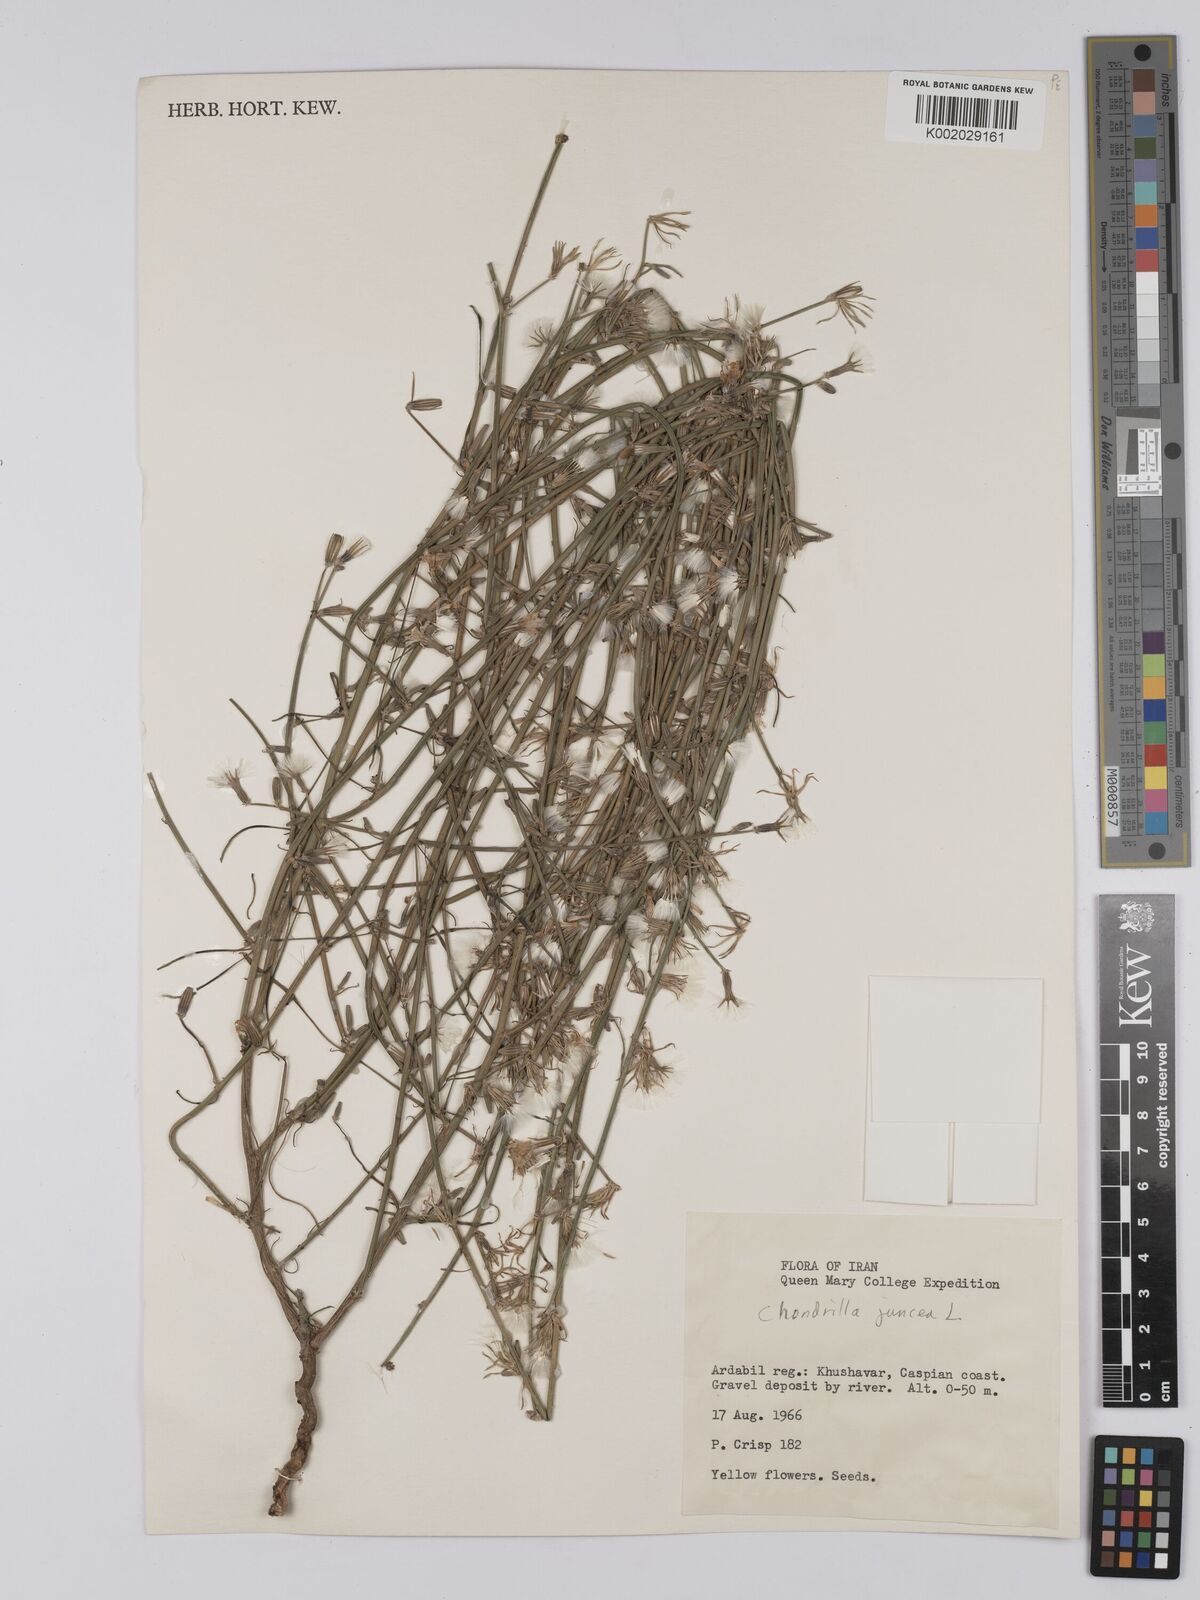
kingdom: Plantae
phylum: Tracheophyta
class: Magnoliopsida
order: Asterales
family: Asteraceae
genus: Chondrilla
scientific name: Chondrilla juncea
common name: Skeleton weed
